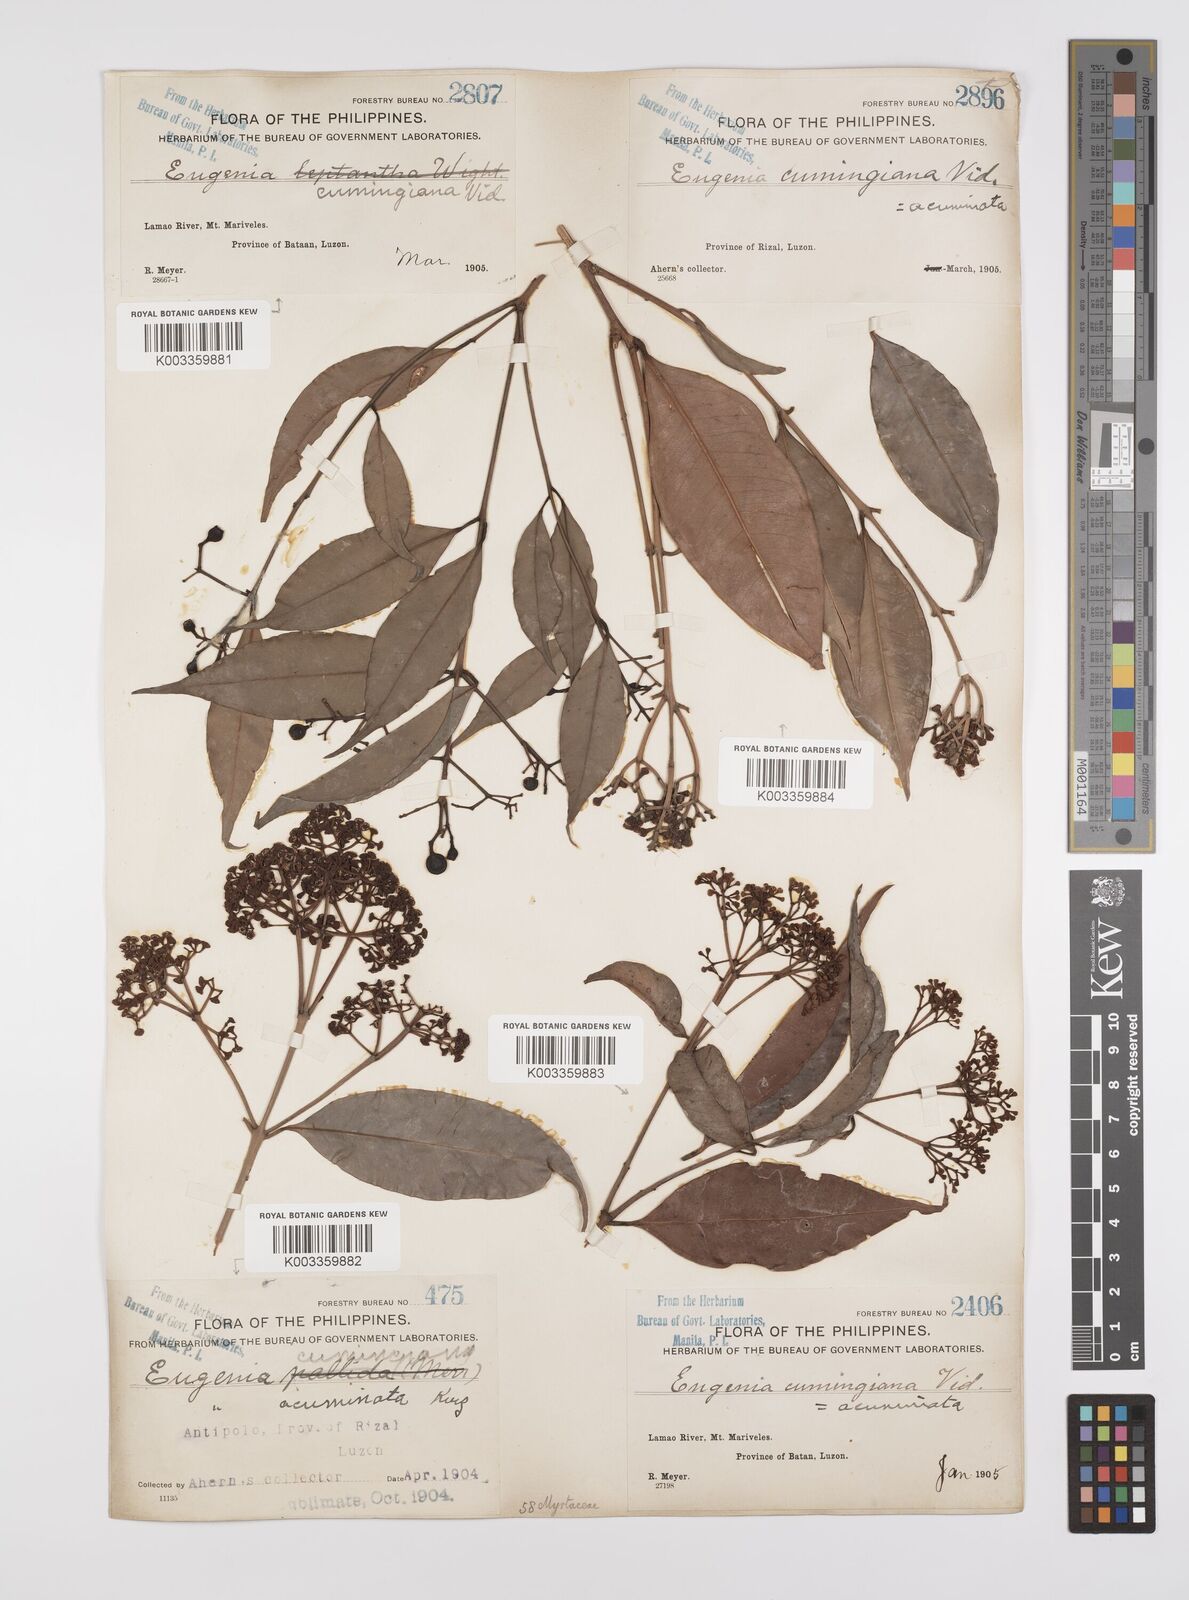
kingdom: Plantae
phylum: Tracheophyta
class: Magnoliopsida
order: Myrtales
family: Myrtaceae
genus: Syzygium
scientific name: Syzygium
